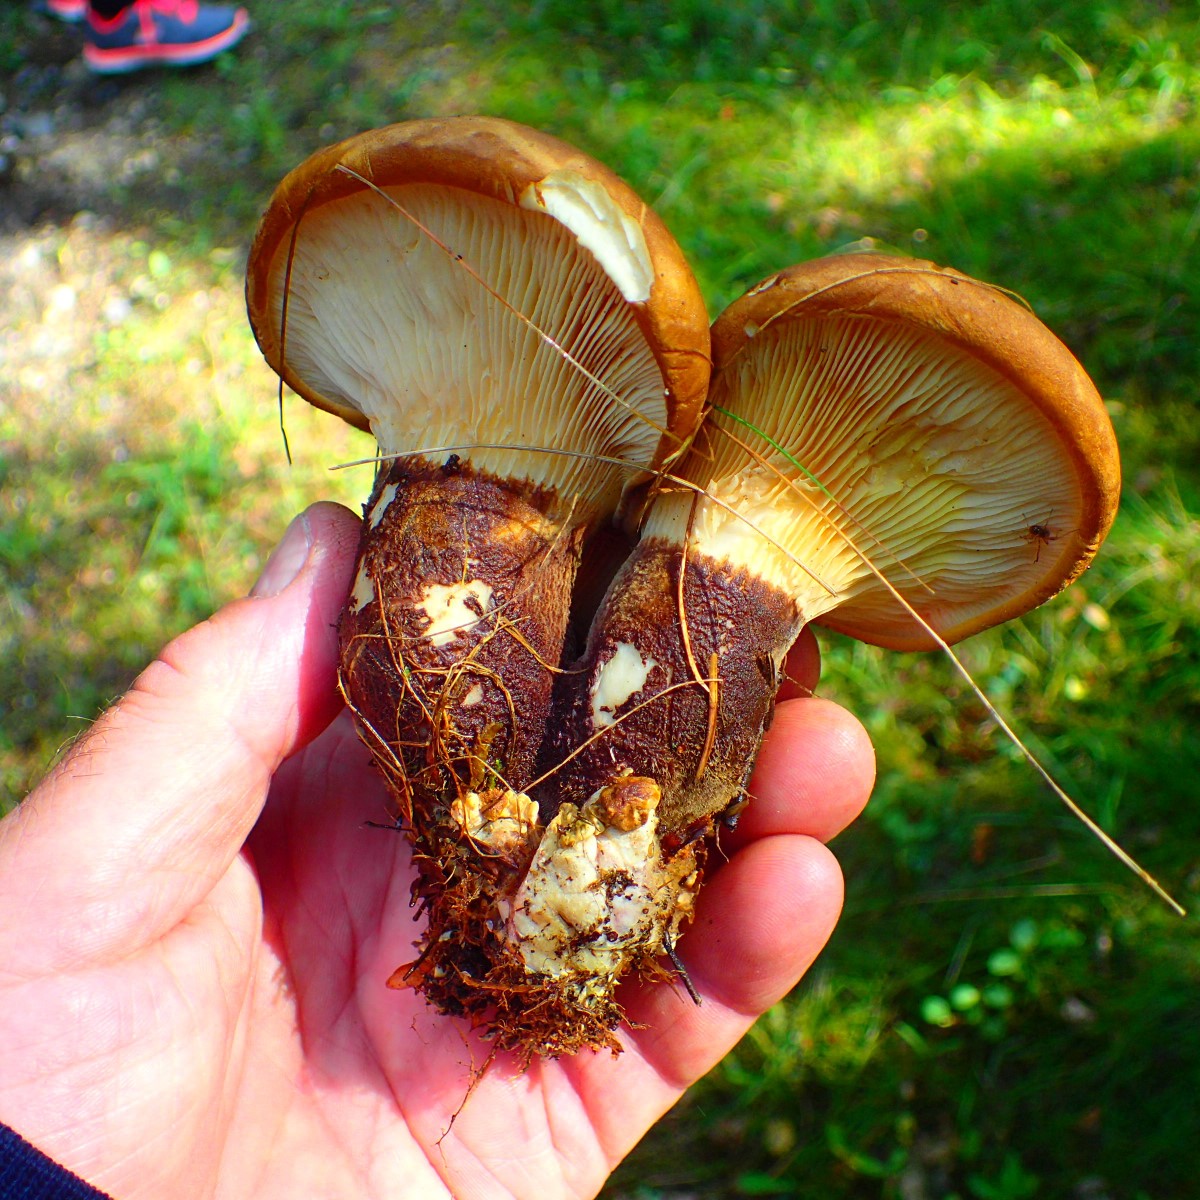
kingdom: Fungi
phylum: Basidiomycota
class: Agaricomycetes
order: Boletales
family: Tapinellaceae
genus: Tapinella
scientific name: Tapinella atrotomentosa
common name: sortfiltet viftesvamp
